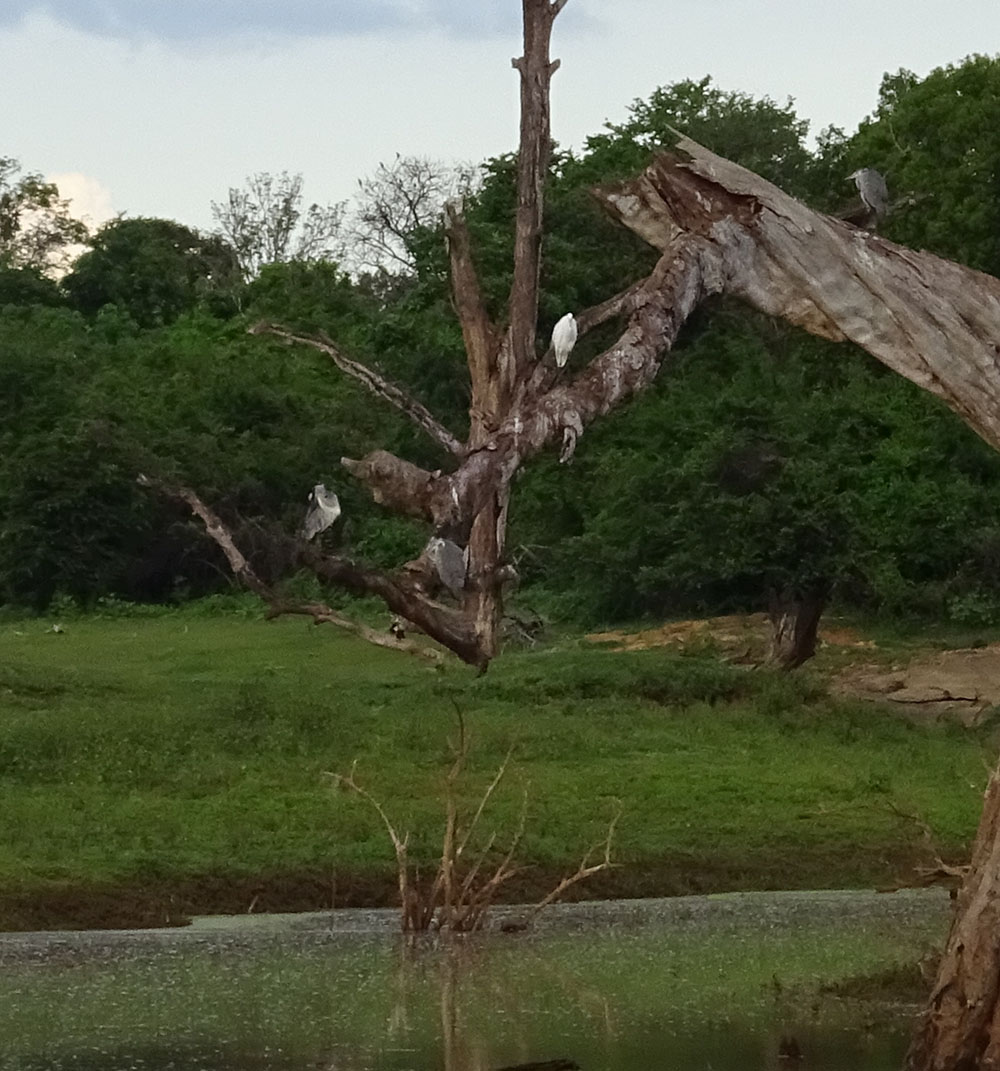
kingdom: Animalia
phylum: Chordata
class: Aves
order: Pelecaniformes
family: Ardeidae
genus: Ardea
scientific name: Ardea cinerea
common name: Grey heron
